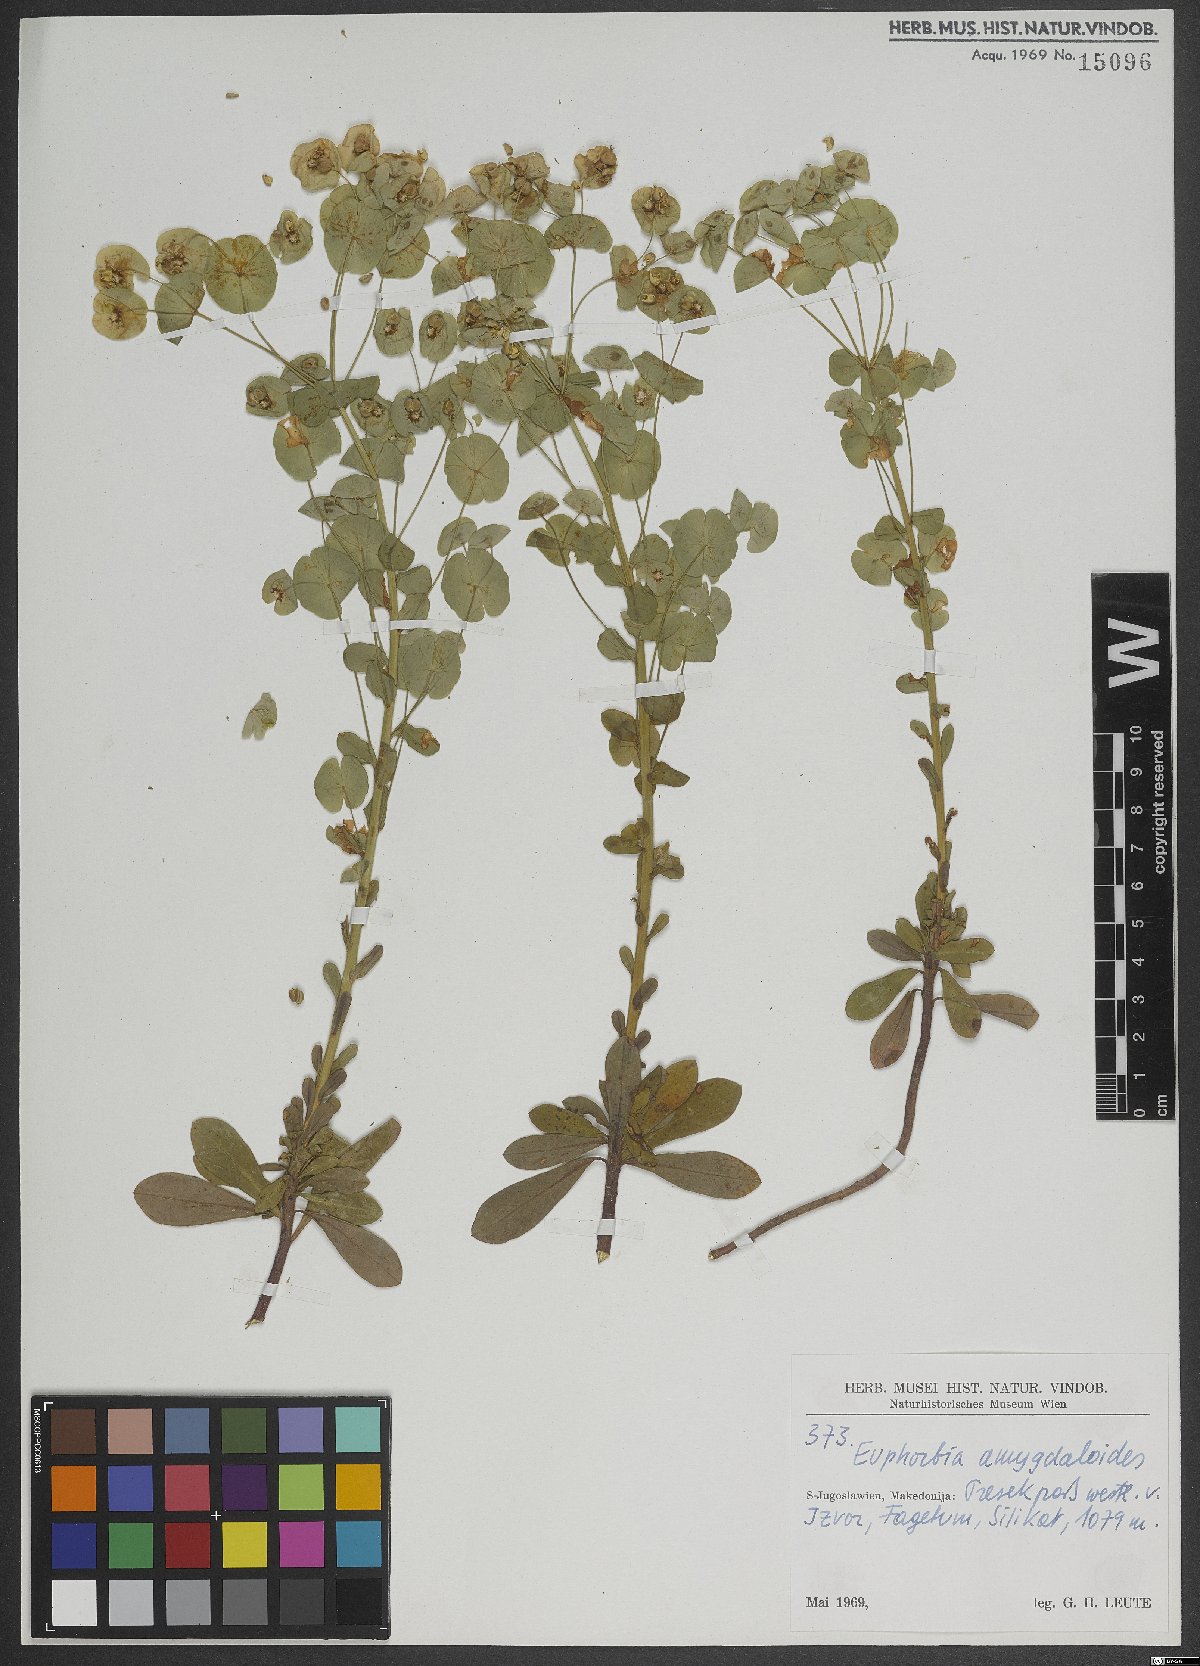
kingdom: Plantae
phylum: Tracheophyta
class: Magnoliopsida
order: Malpighiales
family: Euphorbiaceae
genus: Euphorbia
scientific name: Euphorbia amygdaloides
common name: Wood spurge
